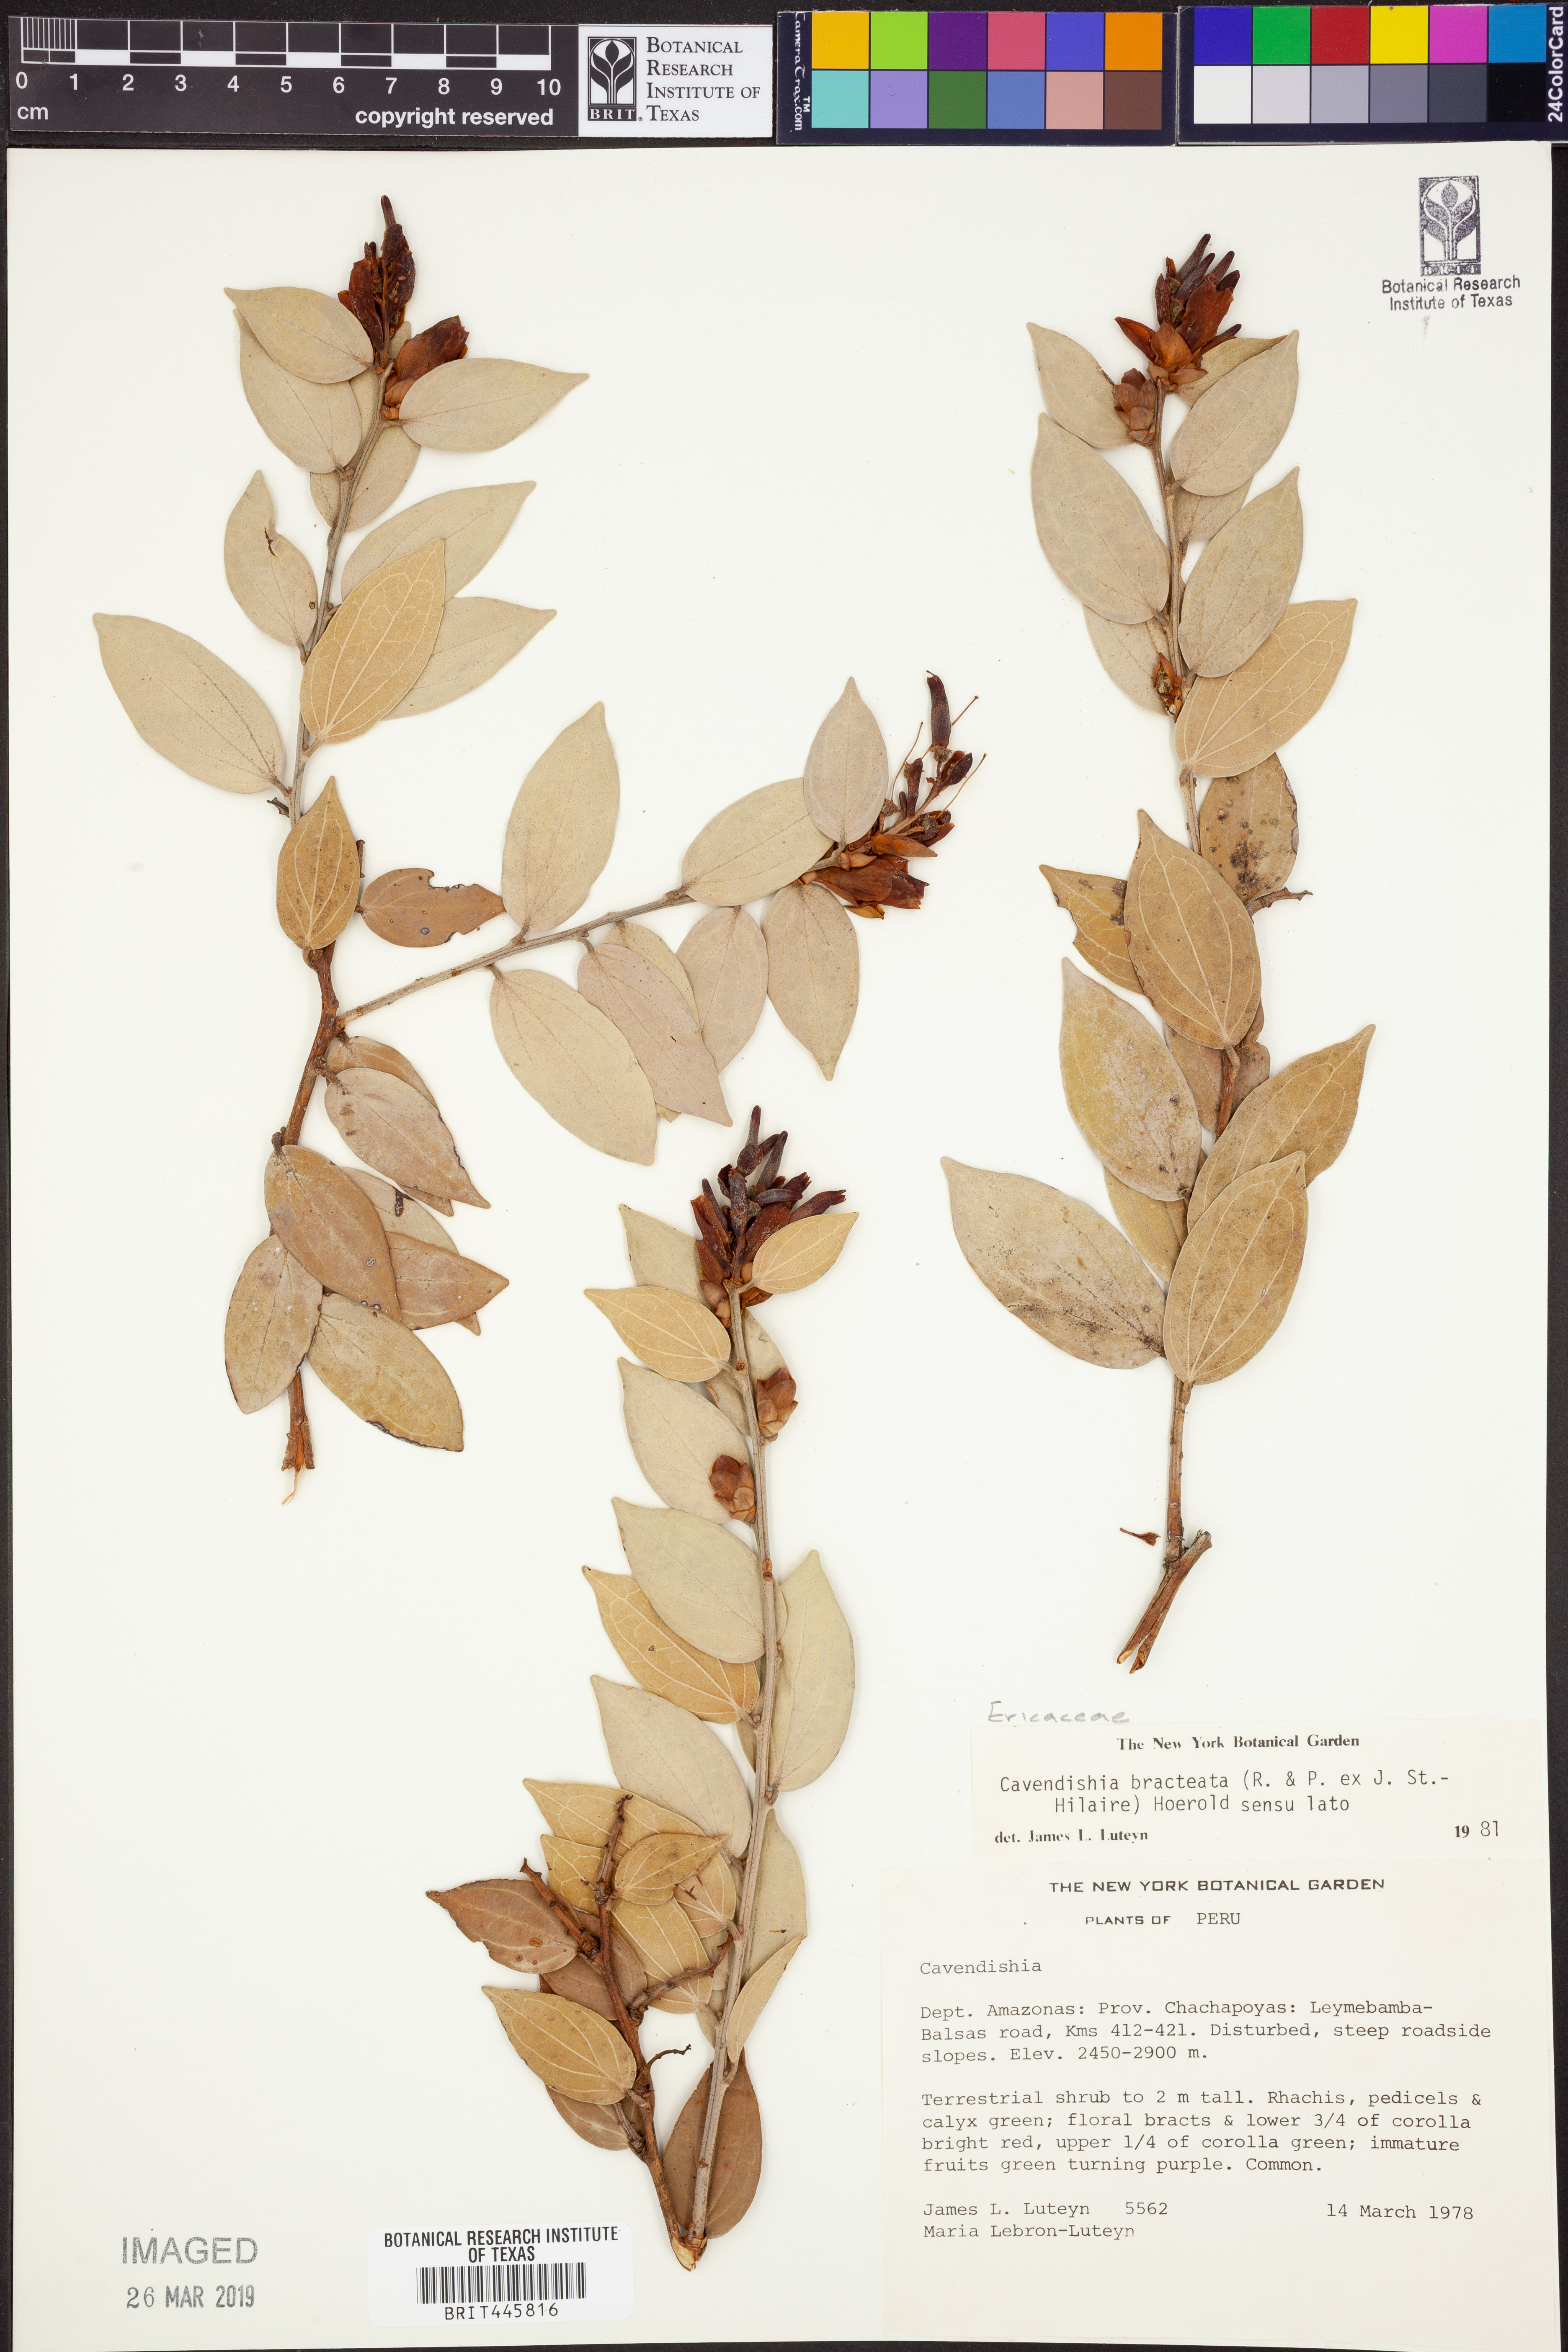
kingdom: Plantae
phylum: Tracheophyta
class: Magnoliopsida
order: Ericales
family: Ericaceae
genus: Cavendishia
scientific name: Cavendishia bracteata
